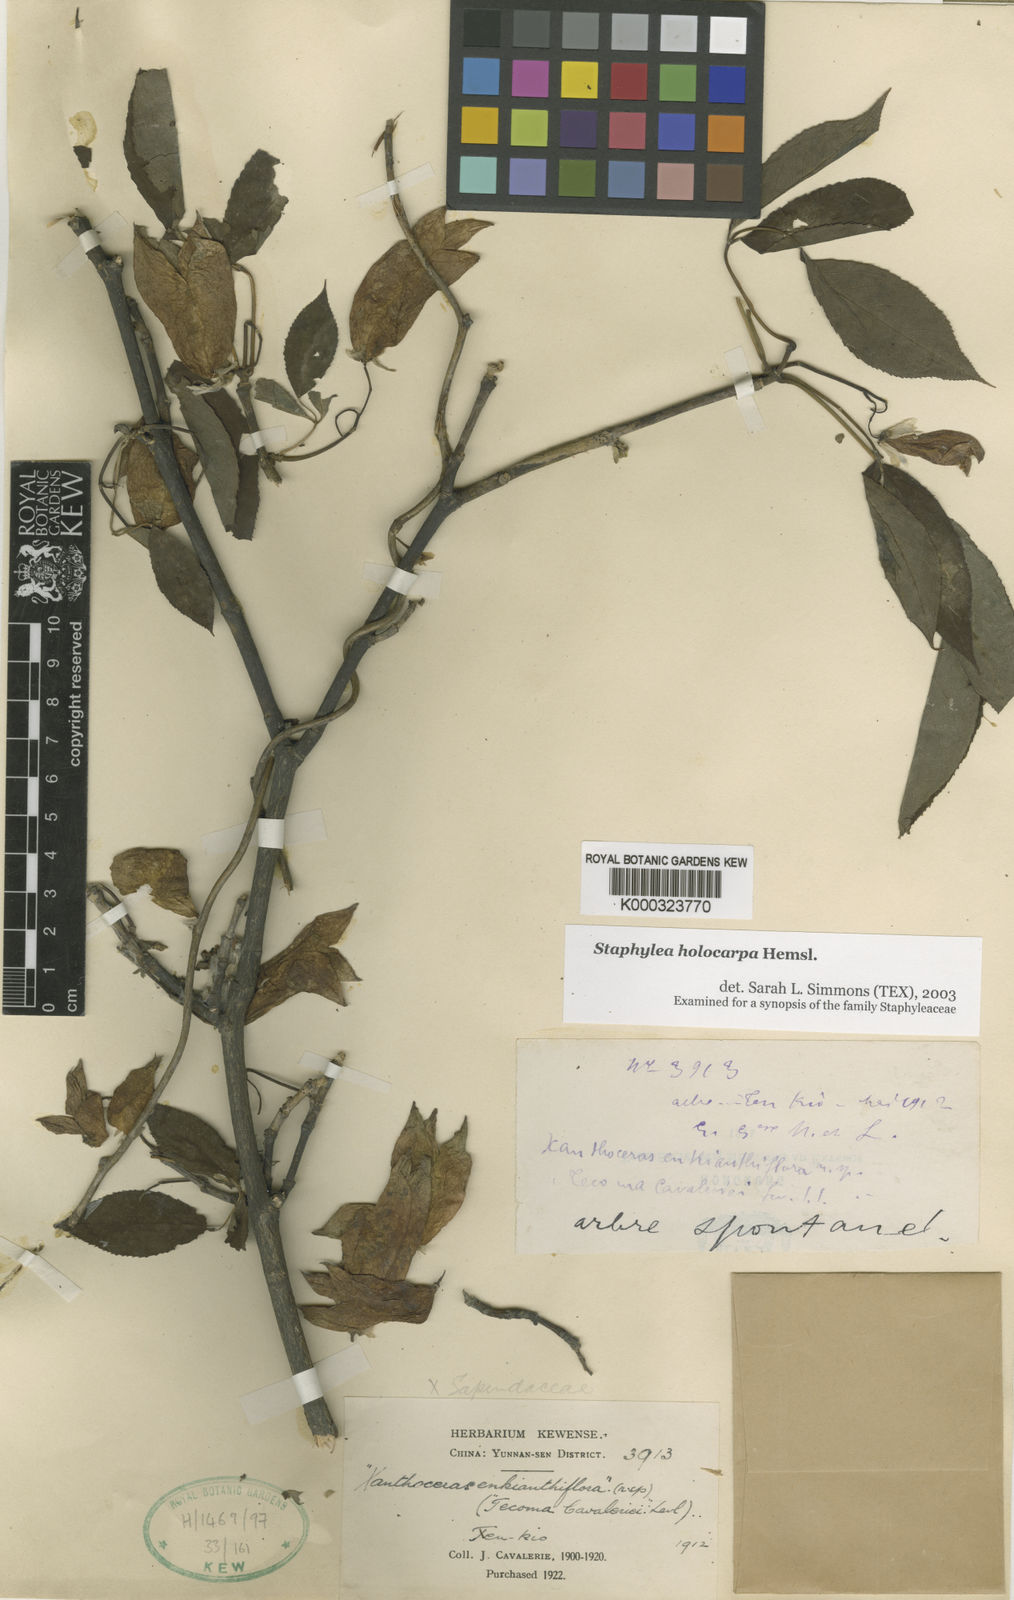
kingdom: Plantae
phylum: Tracheophyta
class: Magnoliopsida
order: Crossosomatales
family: Staphyleaceae
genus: Staphylea
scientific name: Staphylea holocarpa
